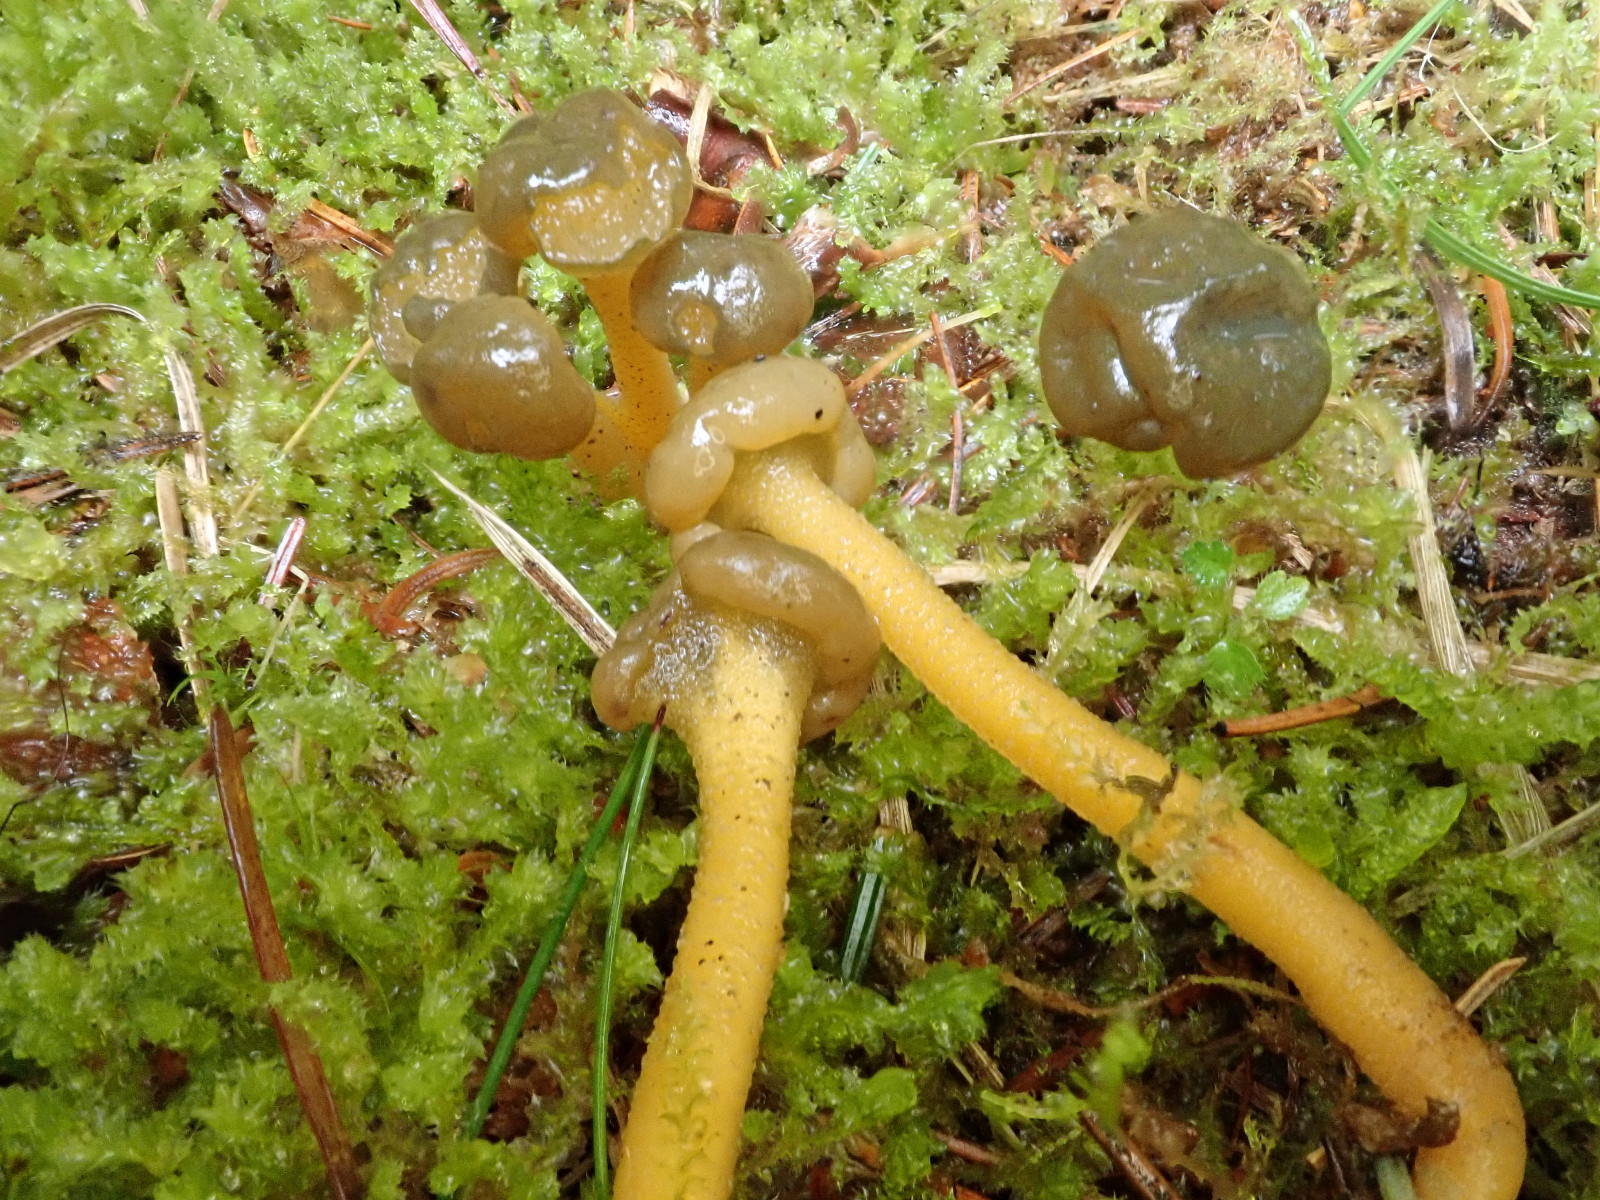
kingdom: Fungi
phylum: Ascomycota
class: Leotiomycetes
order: Leotiales
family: Leotiaceae
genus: Leotia
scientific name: Leotia lubrica
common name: ravsvamp
